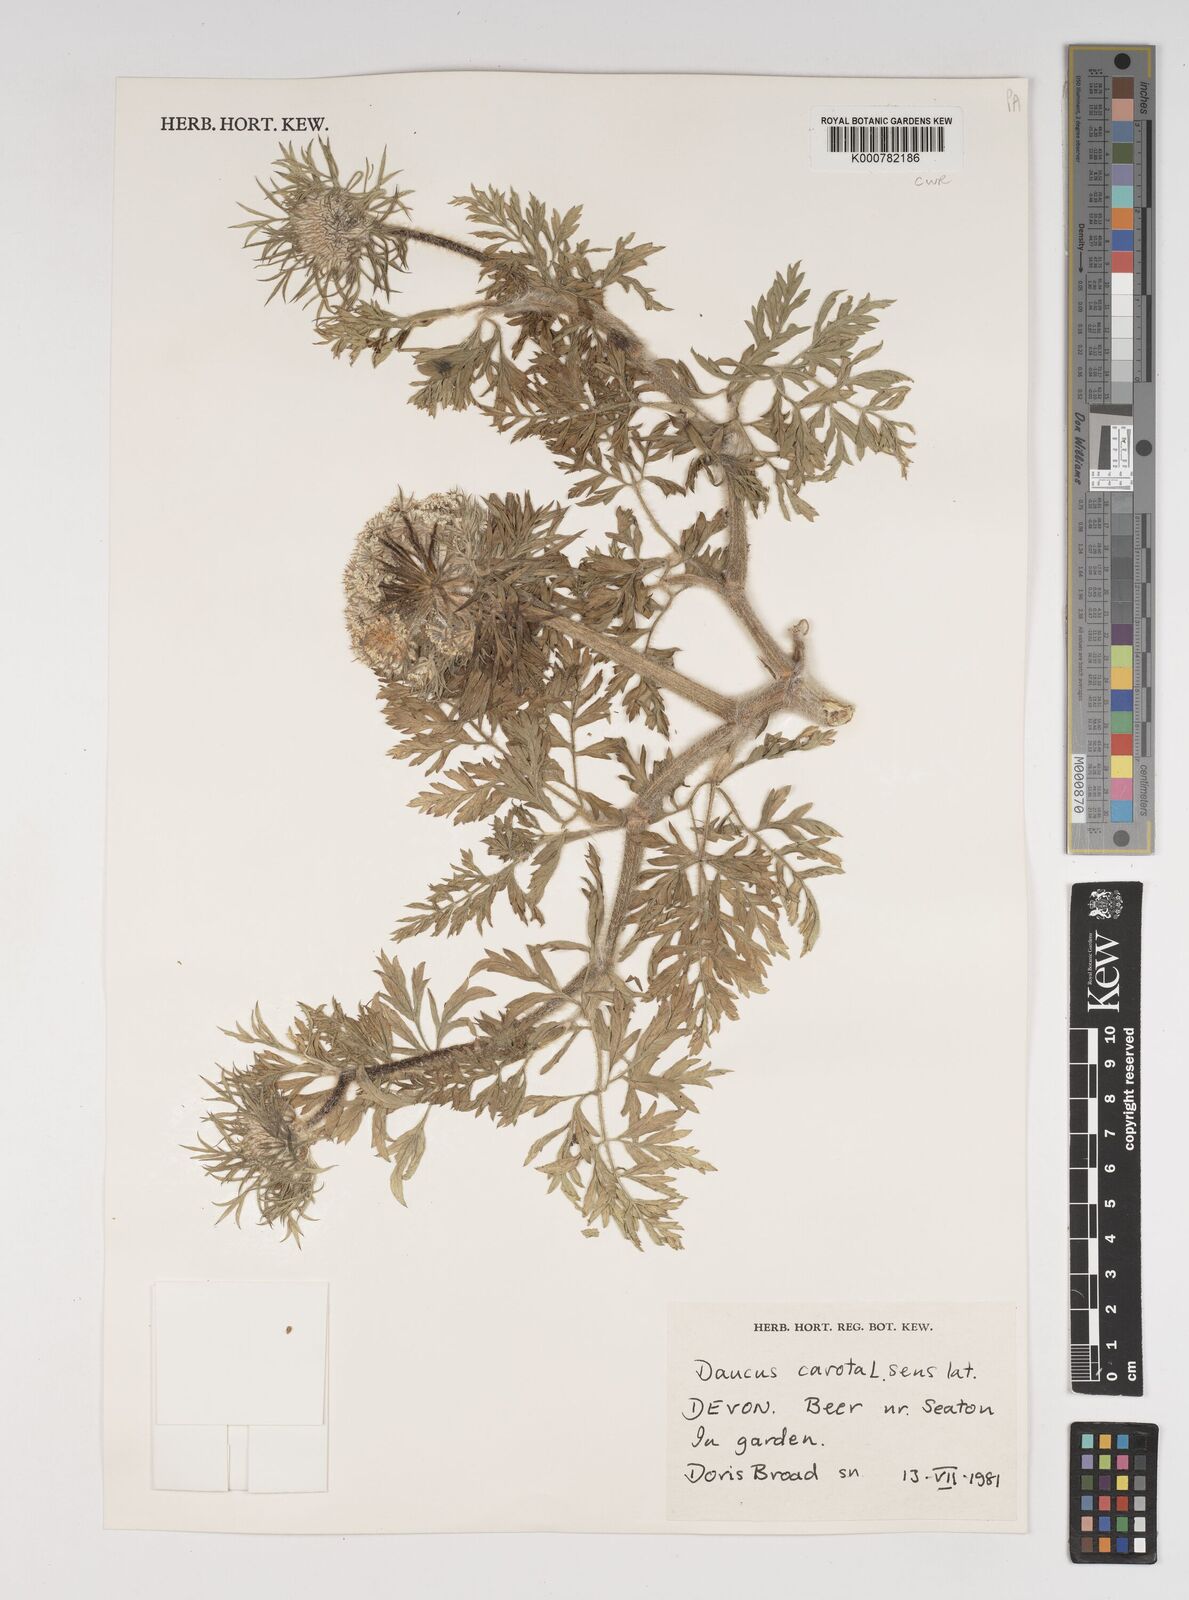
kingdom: Plantae
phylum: Tracheophyta
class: Magnoliopsida
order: Apiales
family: Apiaceae
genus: Daucus
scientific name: Daucus carota
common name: Wild carrot
